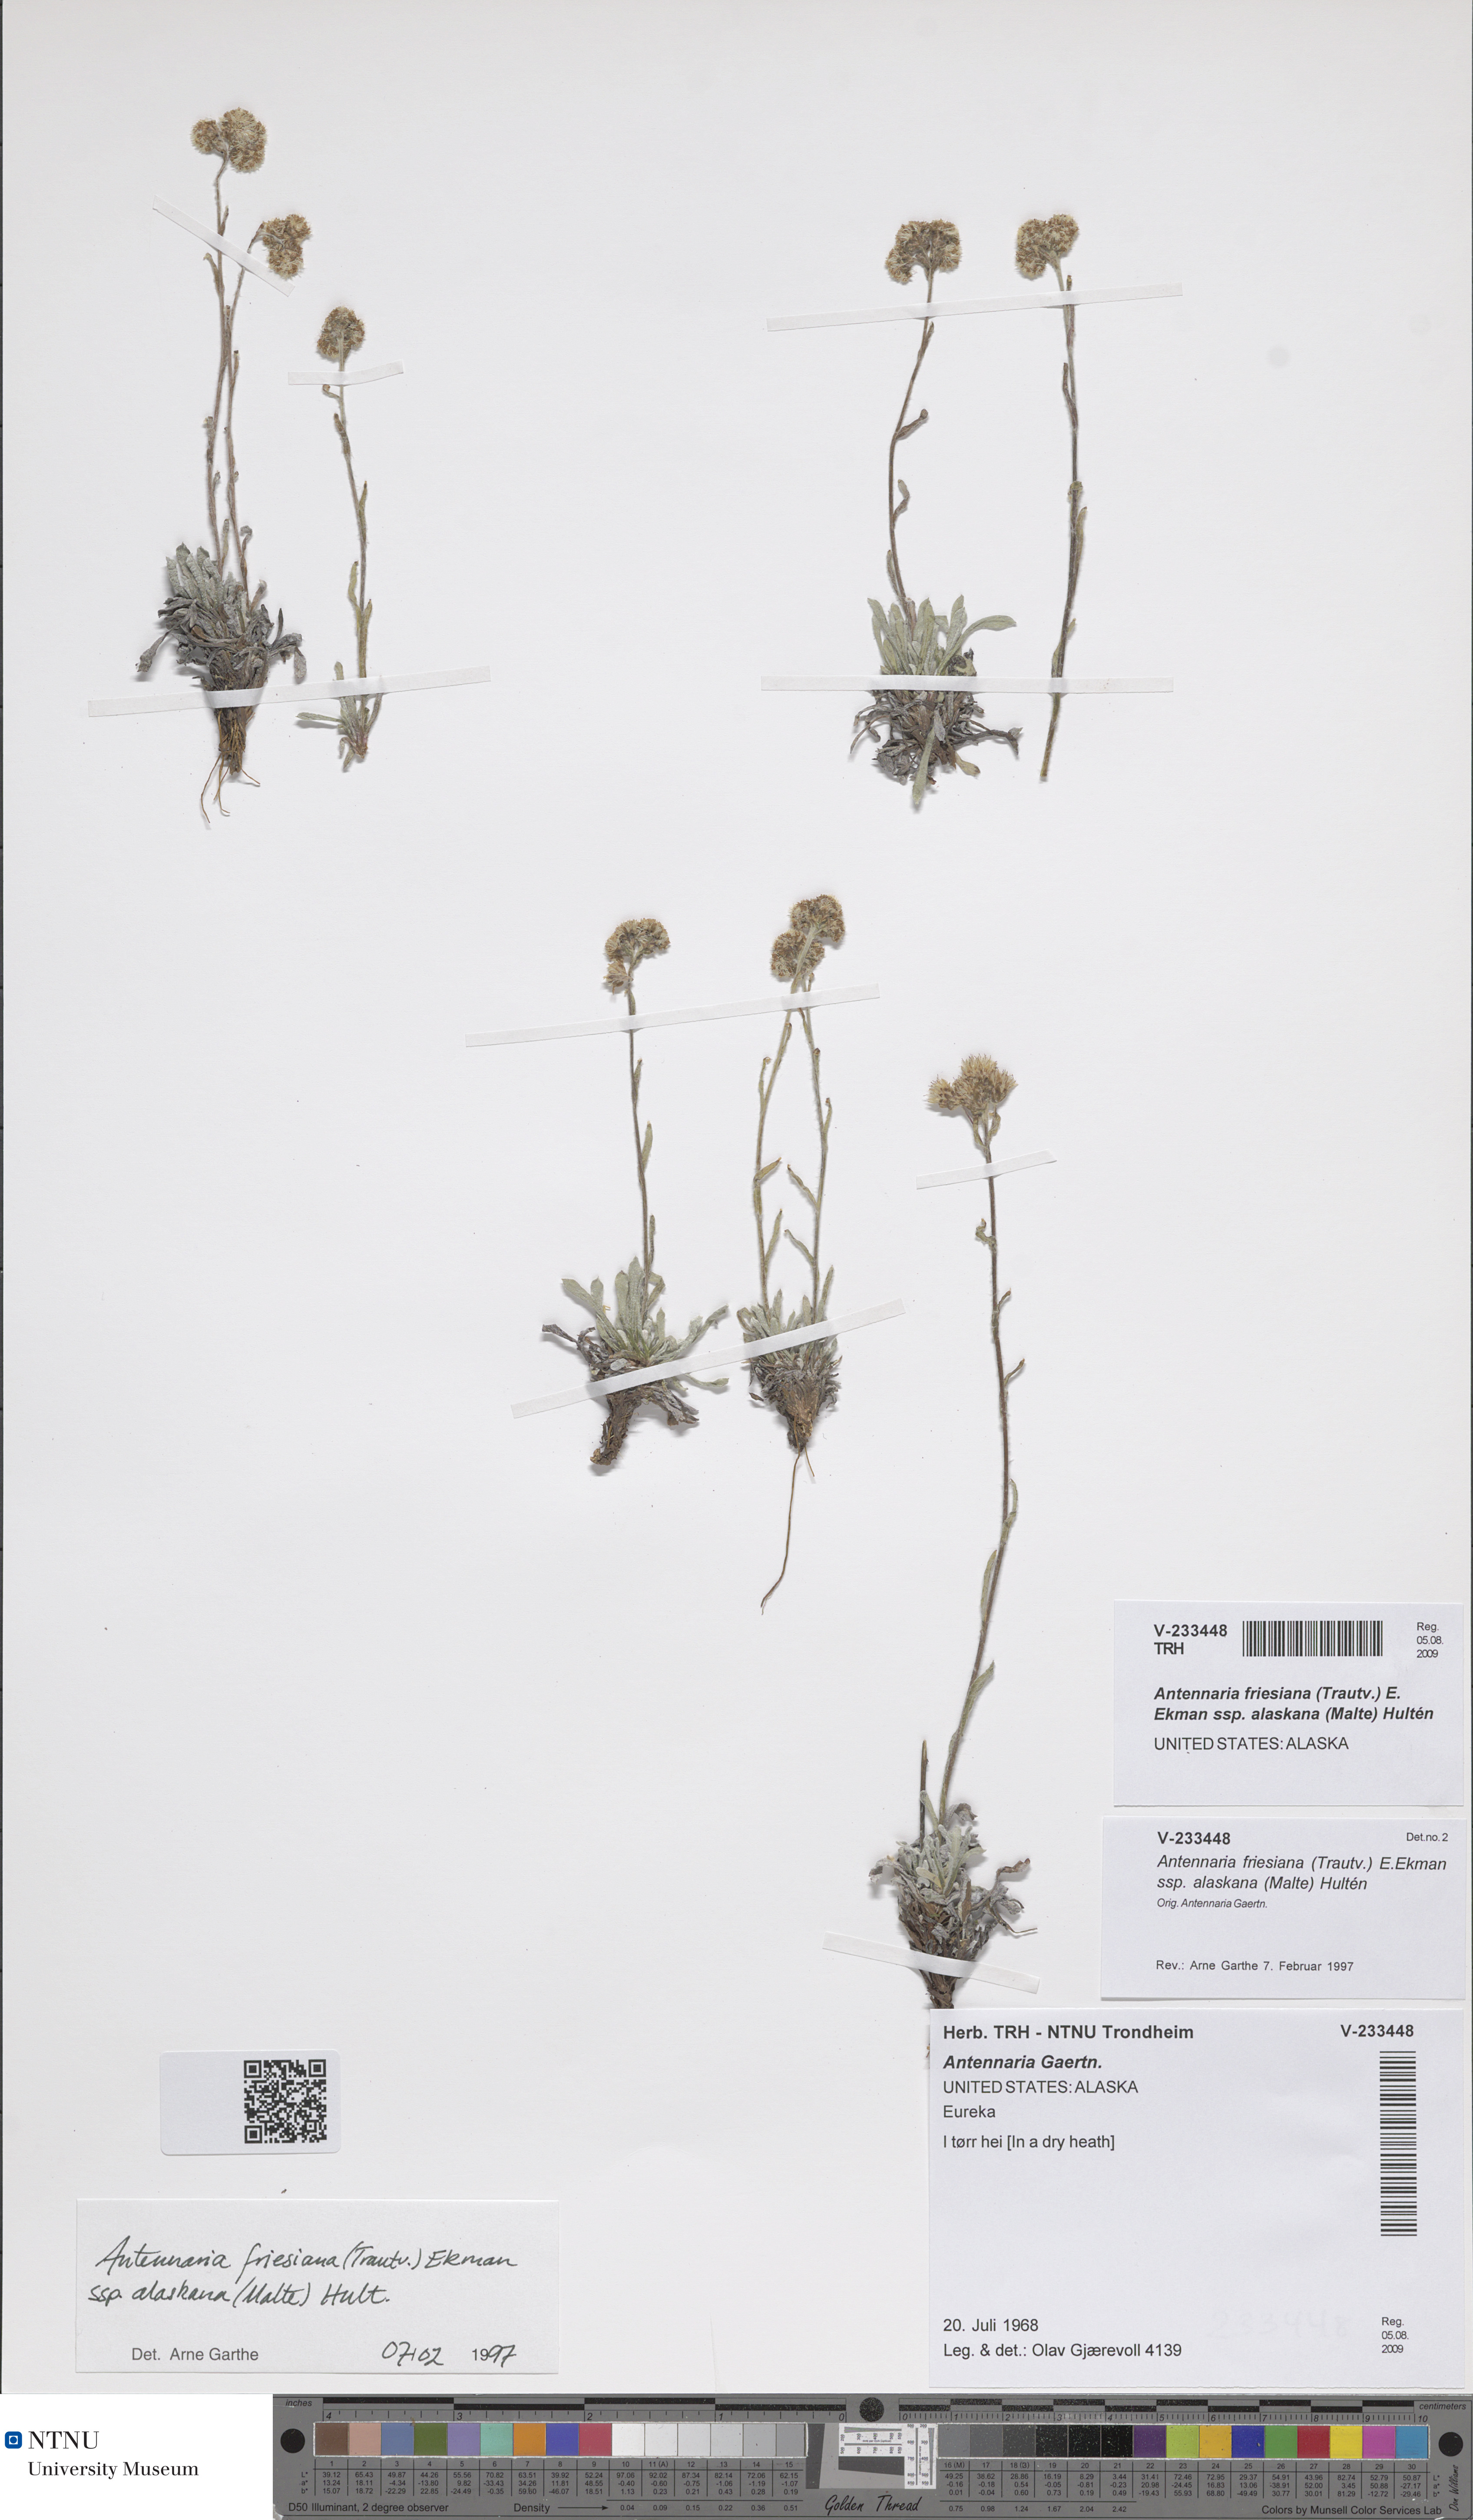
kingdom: Plantae
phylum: Tracheophyta
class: Magnoliopsida
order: Asterales
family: Asteraceae
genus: Antennaria
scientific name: Antennaria friesiana
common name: Fries' pussytoes
